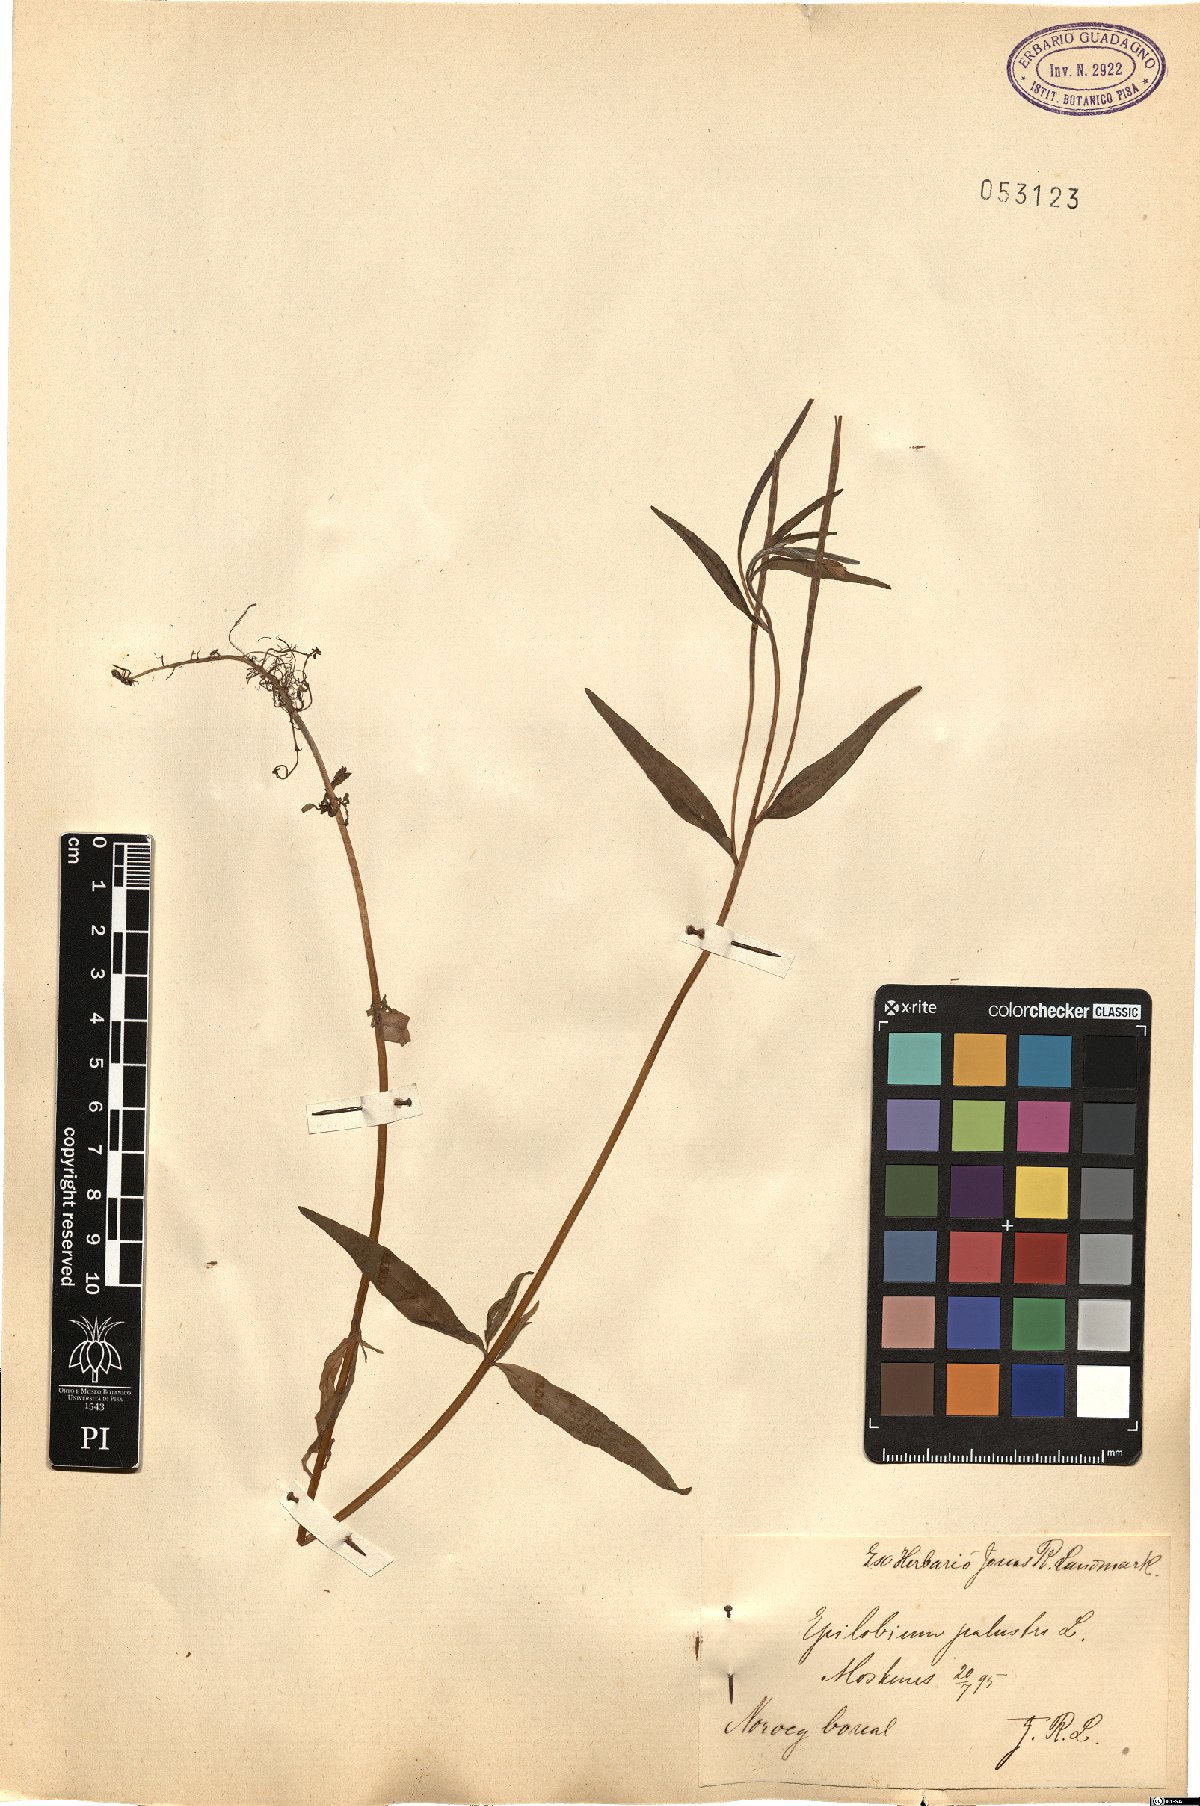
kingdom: Plantae
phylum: Tracheophyta
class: Magnoliopsida
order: Myrtales
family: Onagraceae
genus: Epilobium
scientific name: Epilobium palustre
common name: Marsh willowherb
